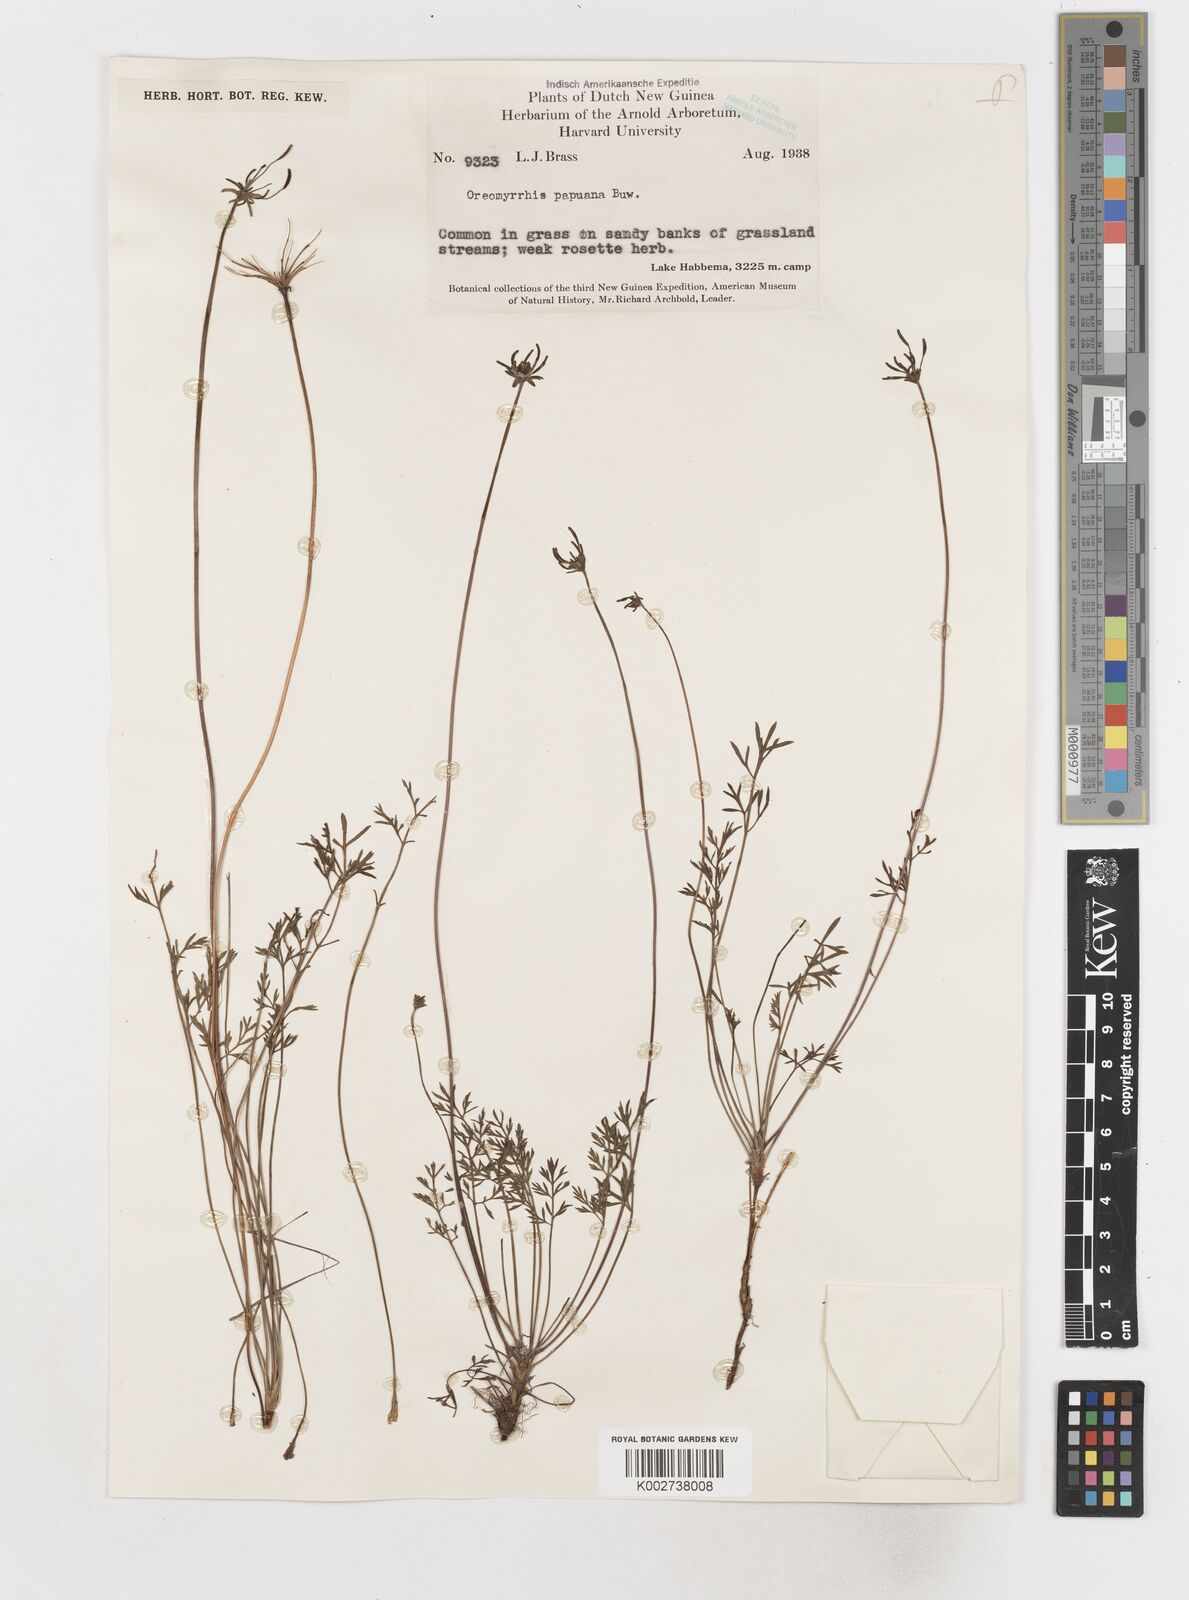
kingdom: Plantae
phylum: Tracheophyta
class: Magnoliopsida
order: Apiales
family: Apiaceae
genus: Chaerophyllum
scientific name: Chaerophyllum papuanum
